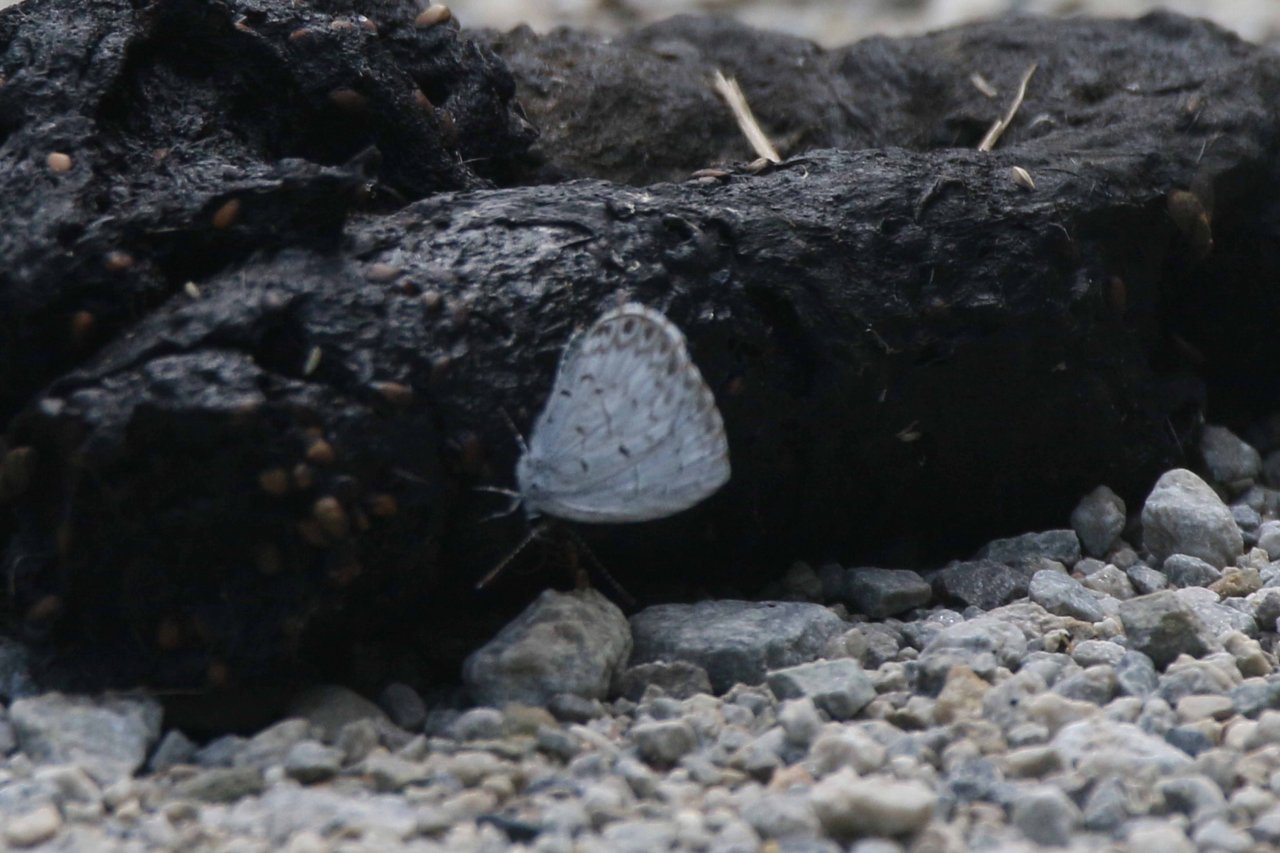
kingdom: Animalia
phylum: Arthropoda
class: Insecta
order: Lepidoptera
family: Lycaenidae
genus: Celastrina
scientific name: Celastrina lucia
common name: Northern Spring Azure
